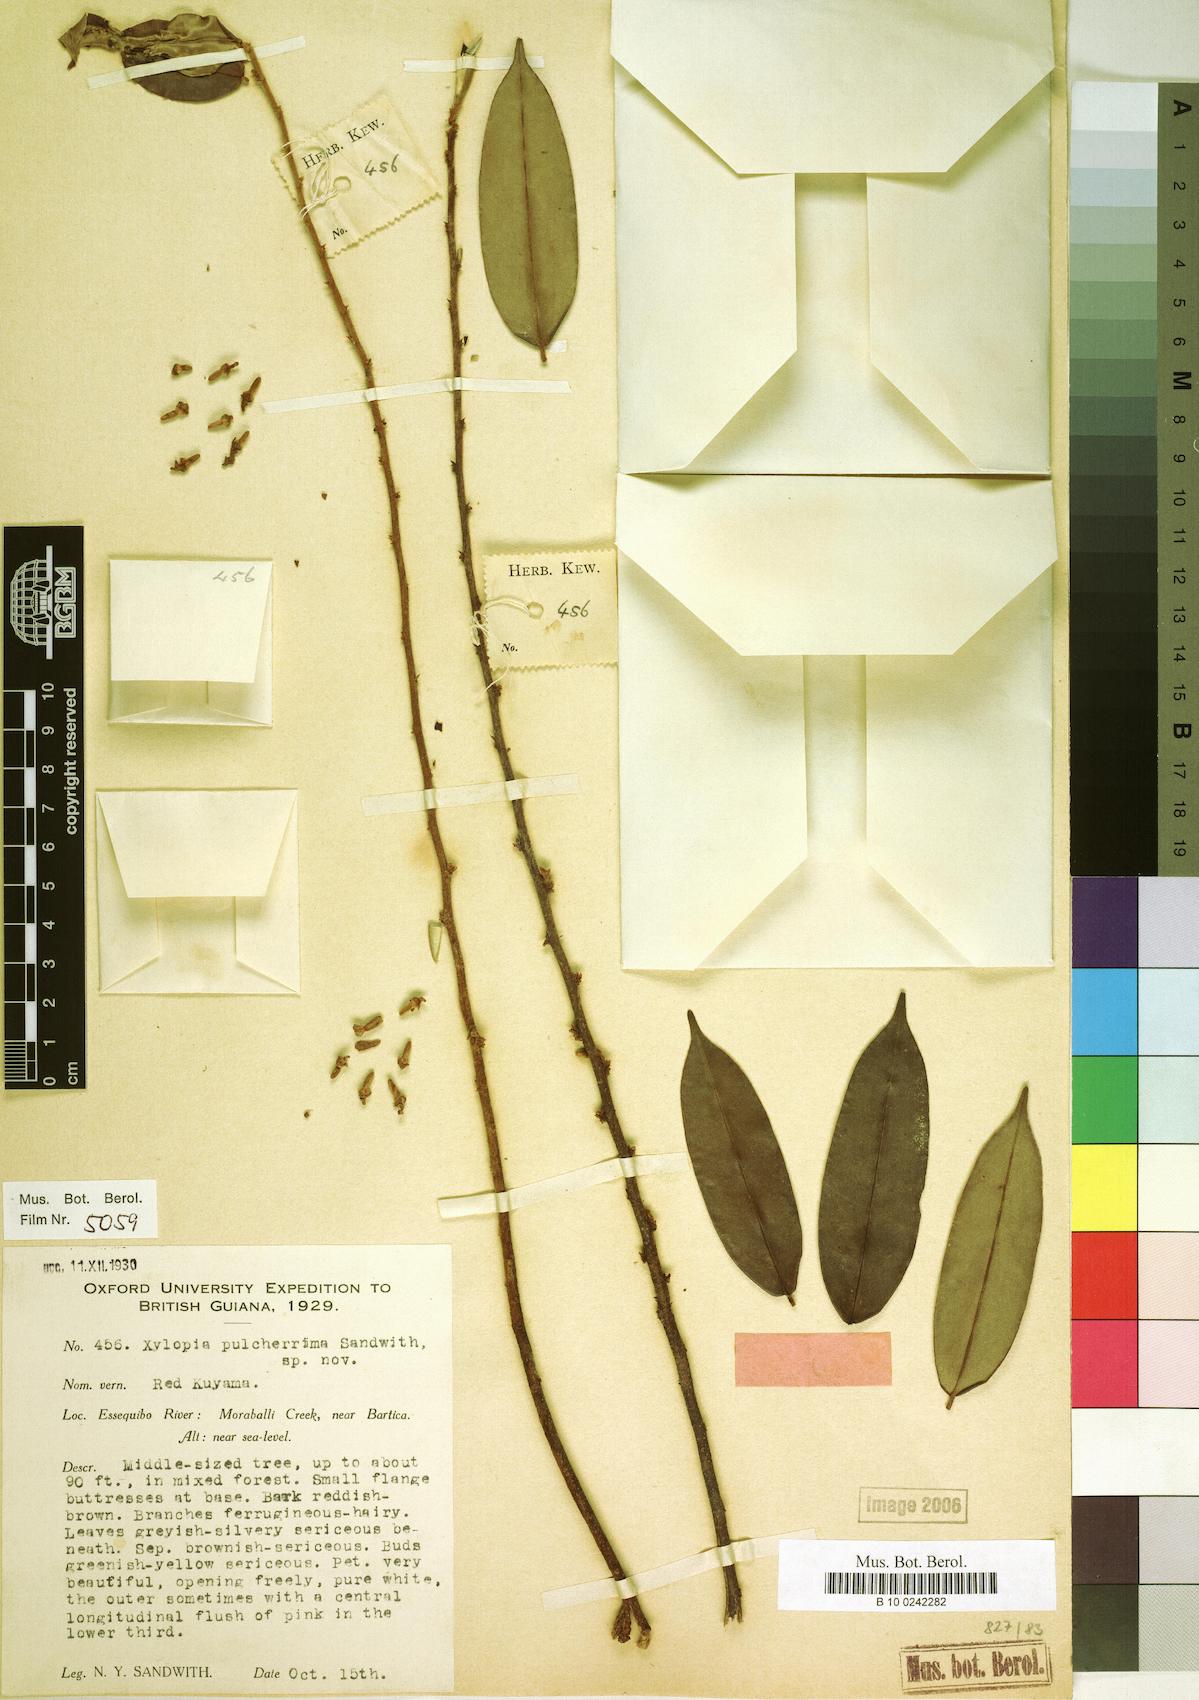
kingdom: Plantae
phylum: Tracheophyta
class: Magnoliopsida
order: Magnoliales
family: Annonaceae
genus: Xylopia
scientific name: Xylopia pulcherrima
